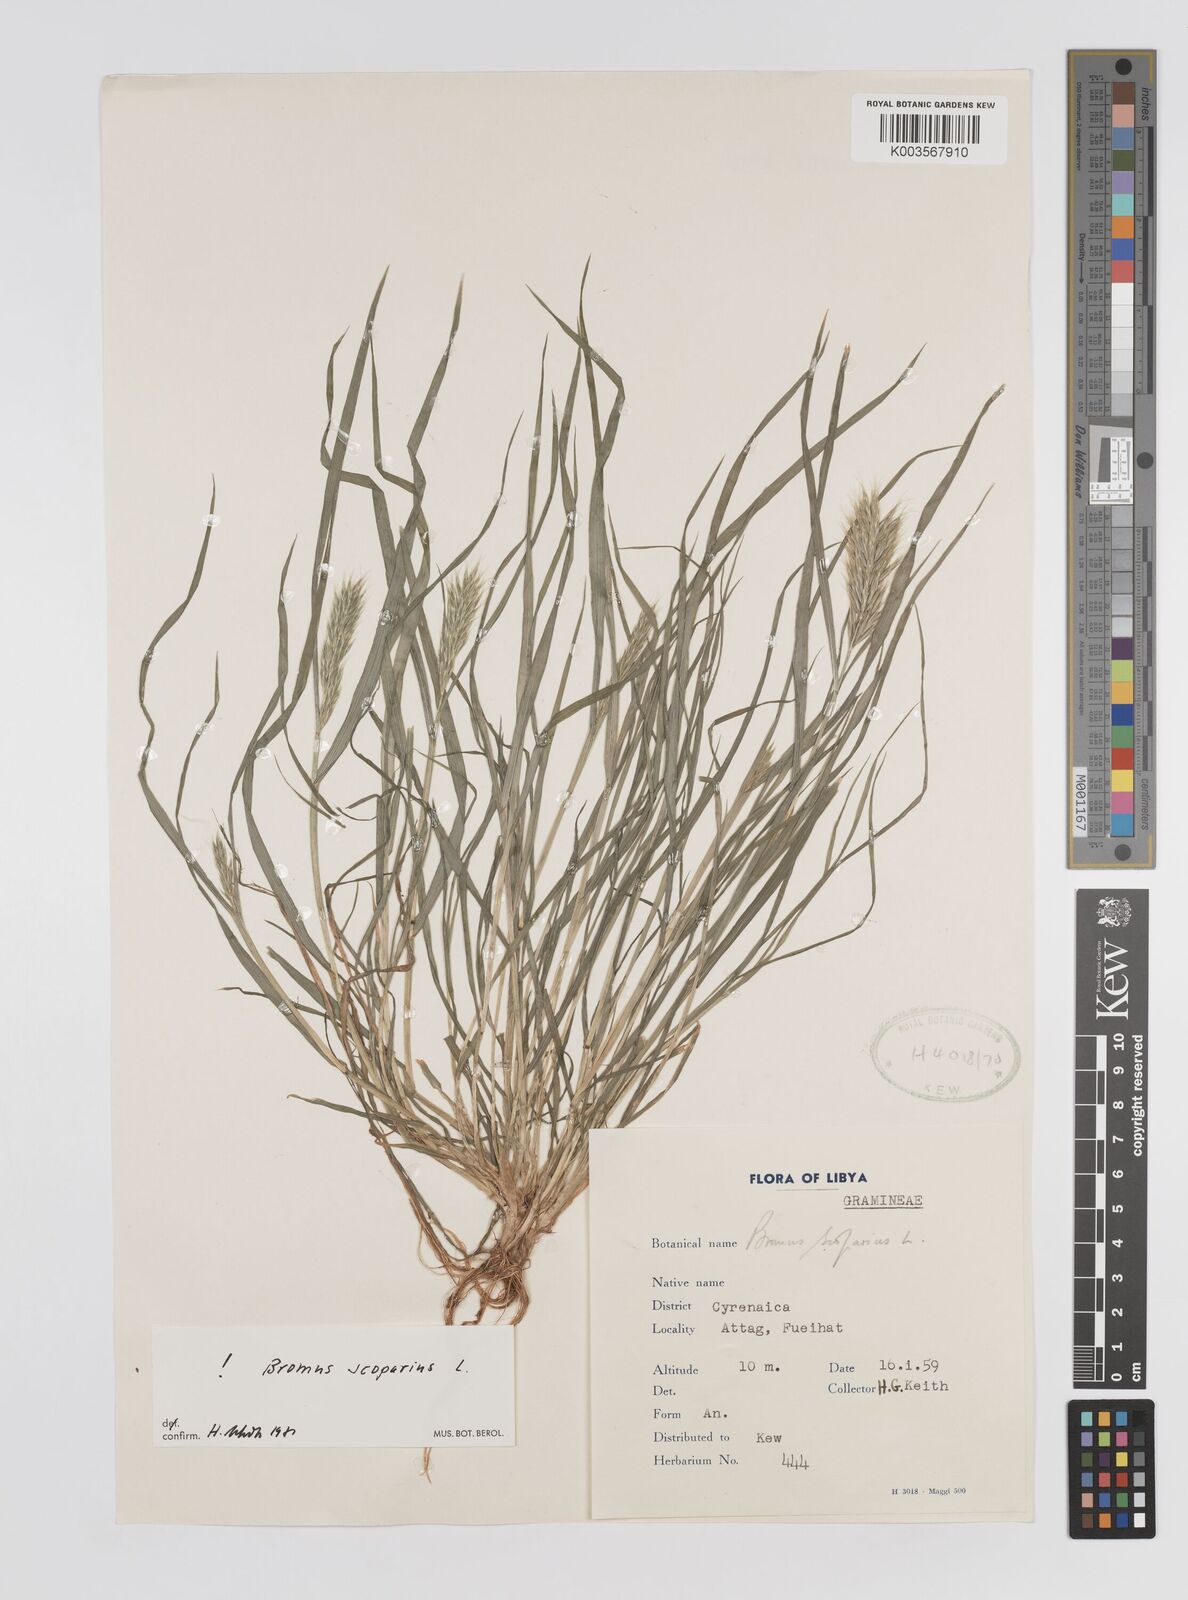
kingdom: Plantae
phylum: Tracheophyta
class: Liliopsida
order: Poales
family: Poaceae
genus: Bromus
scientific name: Bromus scoparius
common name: Broom brome
